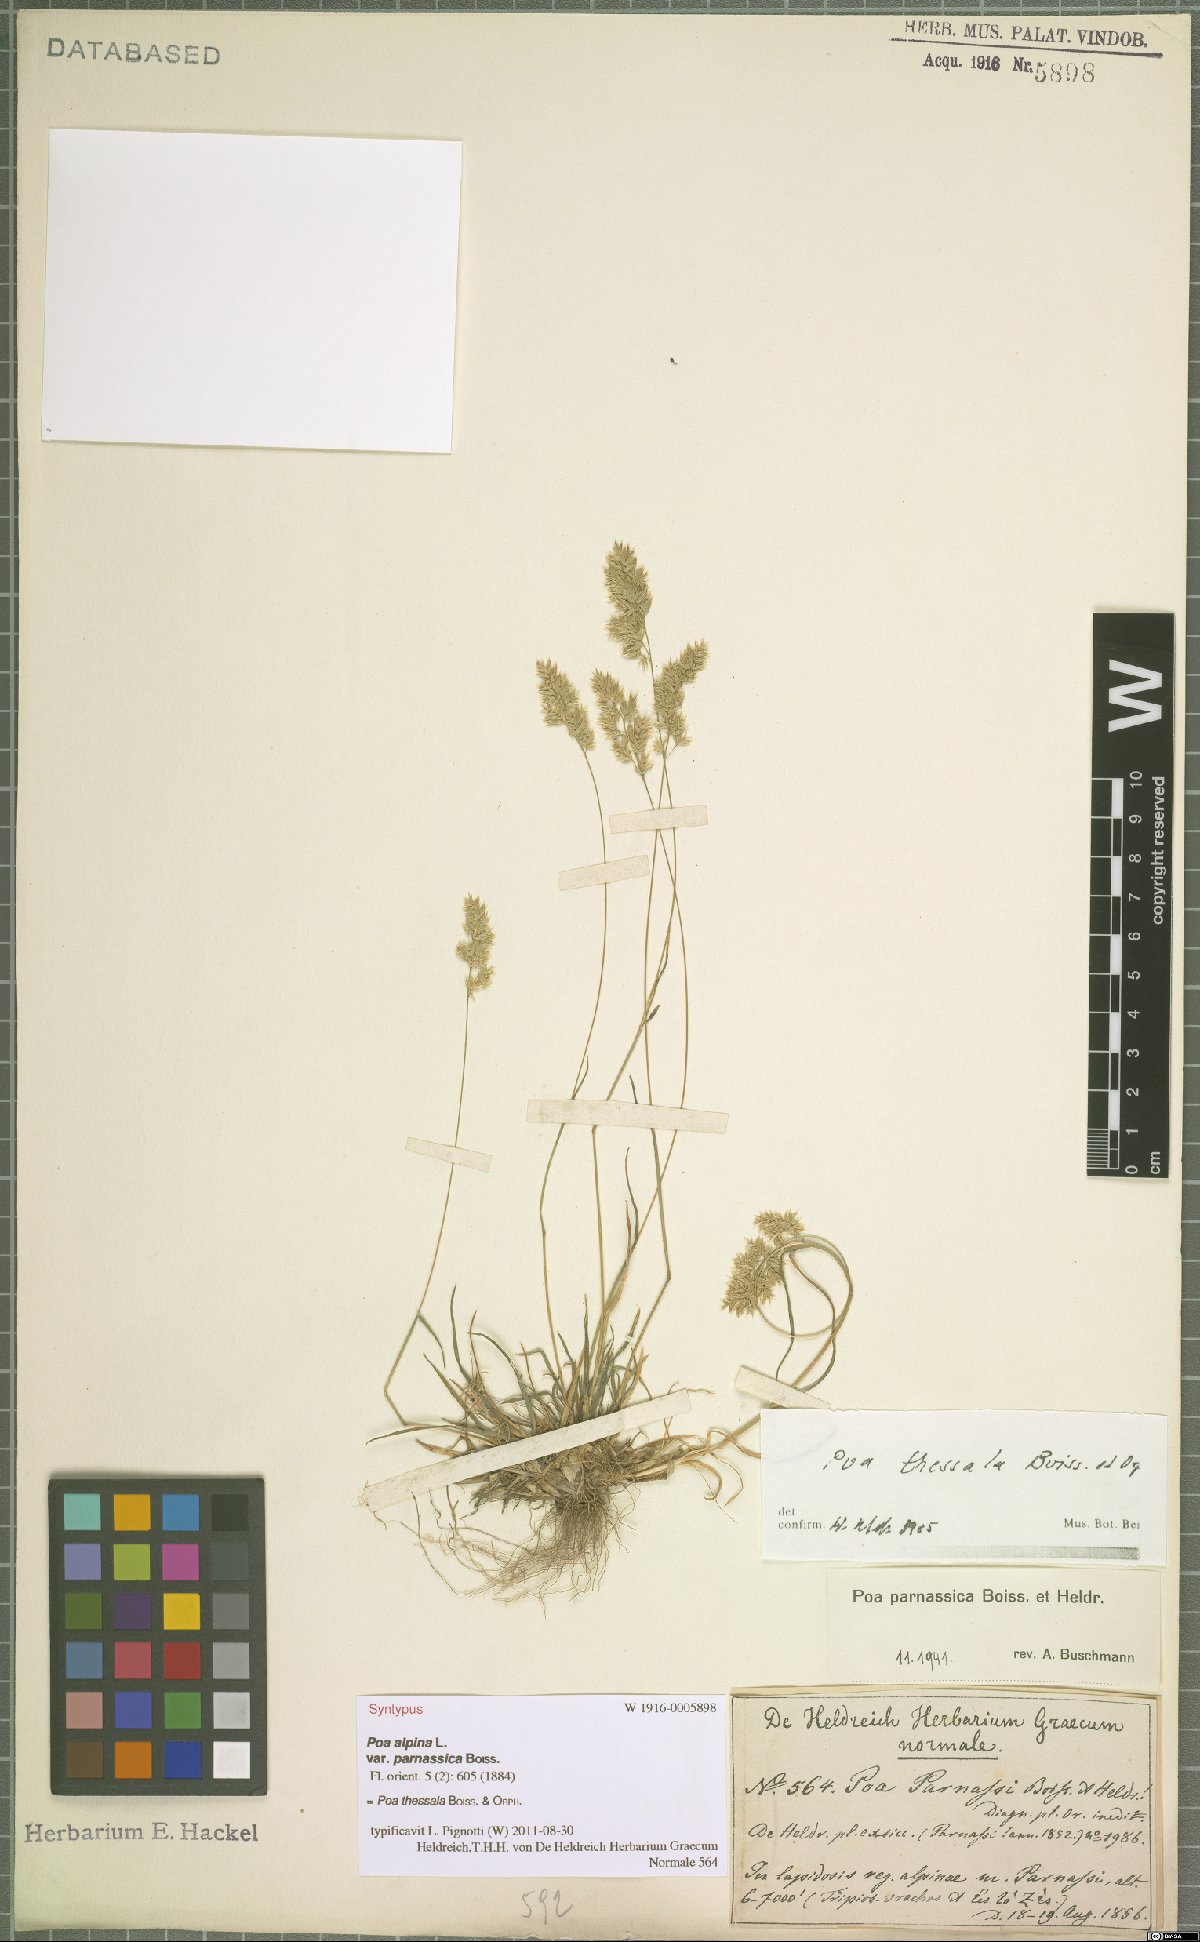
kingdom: Plantae
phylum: Tracheophyta
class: Liliopsida
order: Poales
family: Poaceae
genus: Poa
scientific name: Poa thessala
